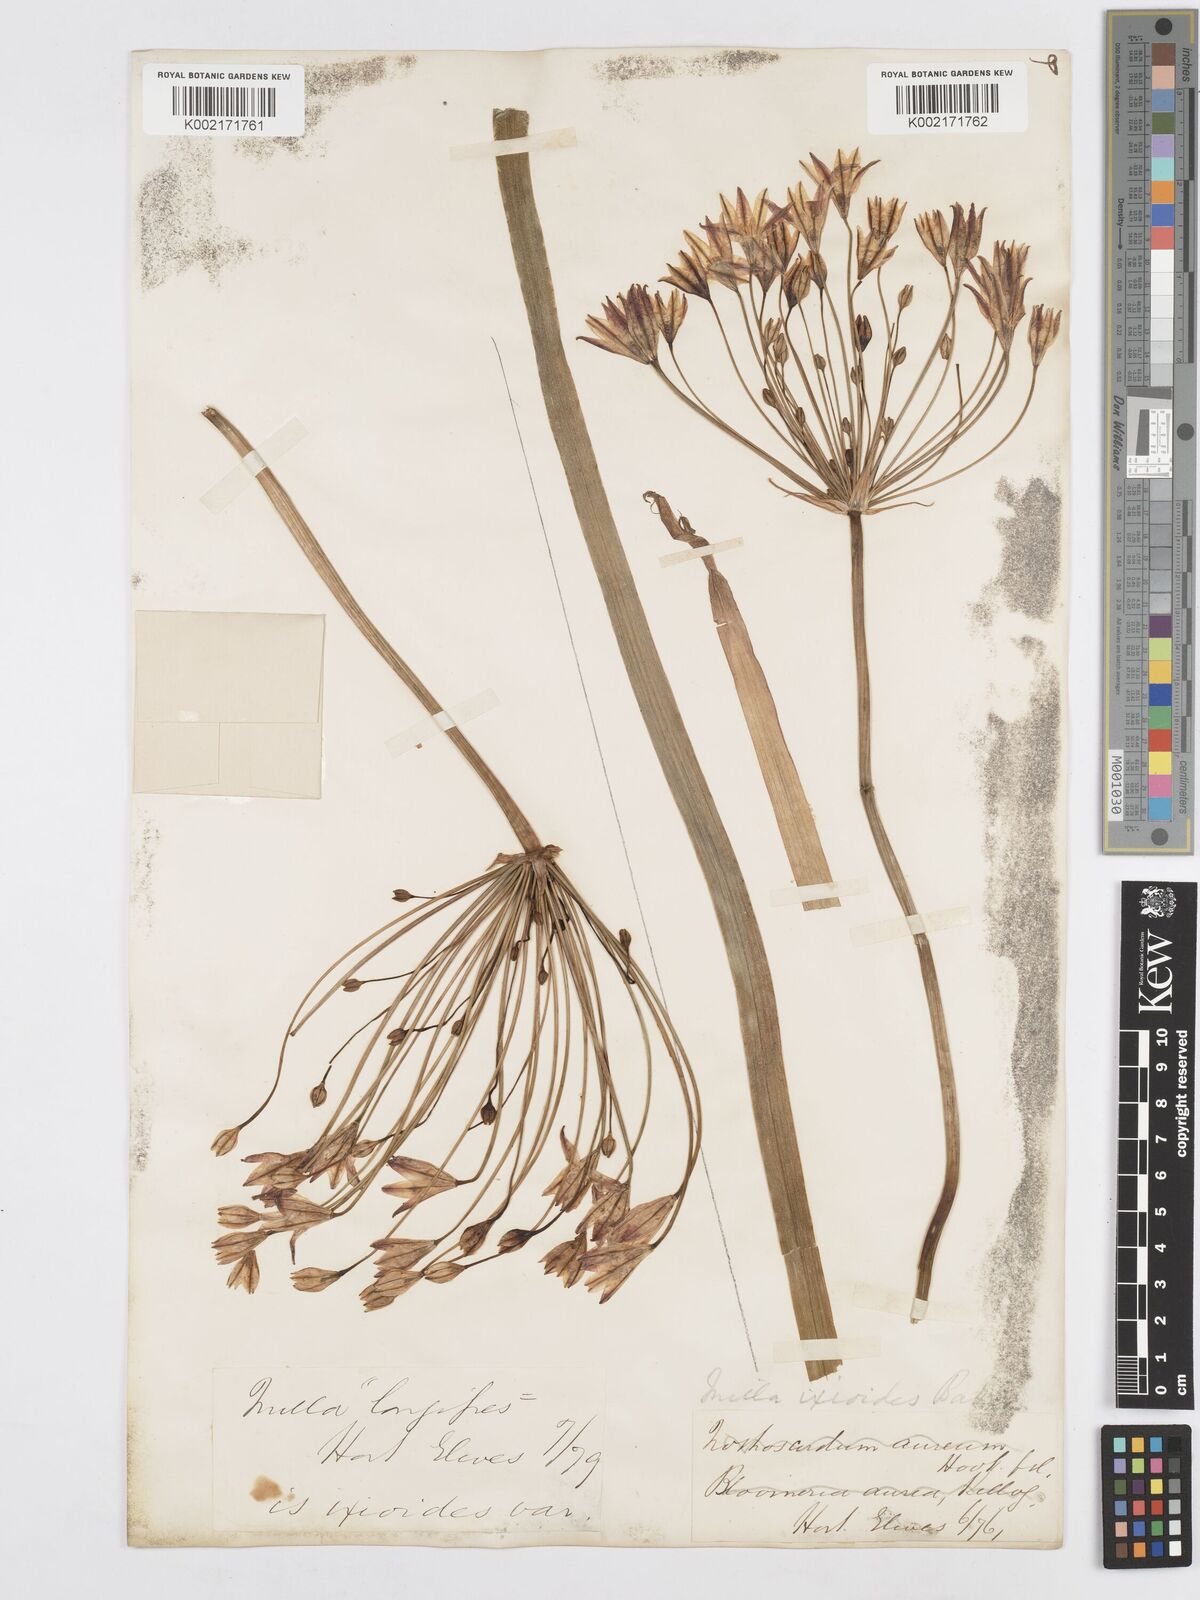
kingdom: Plantae
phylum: Tracheophyta
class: Liliopsida
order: Asparagales
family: Asparagaceae
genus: Triteleia
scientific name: Triteleia ixioides
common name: Yellow-brodiaea
